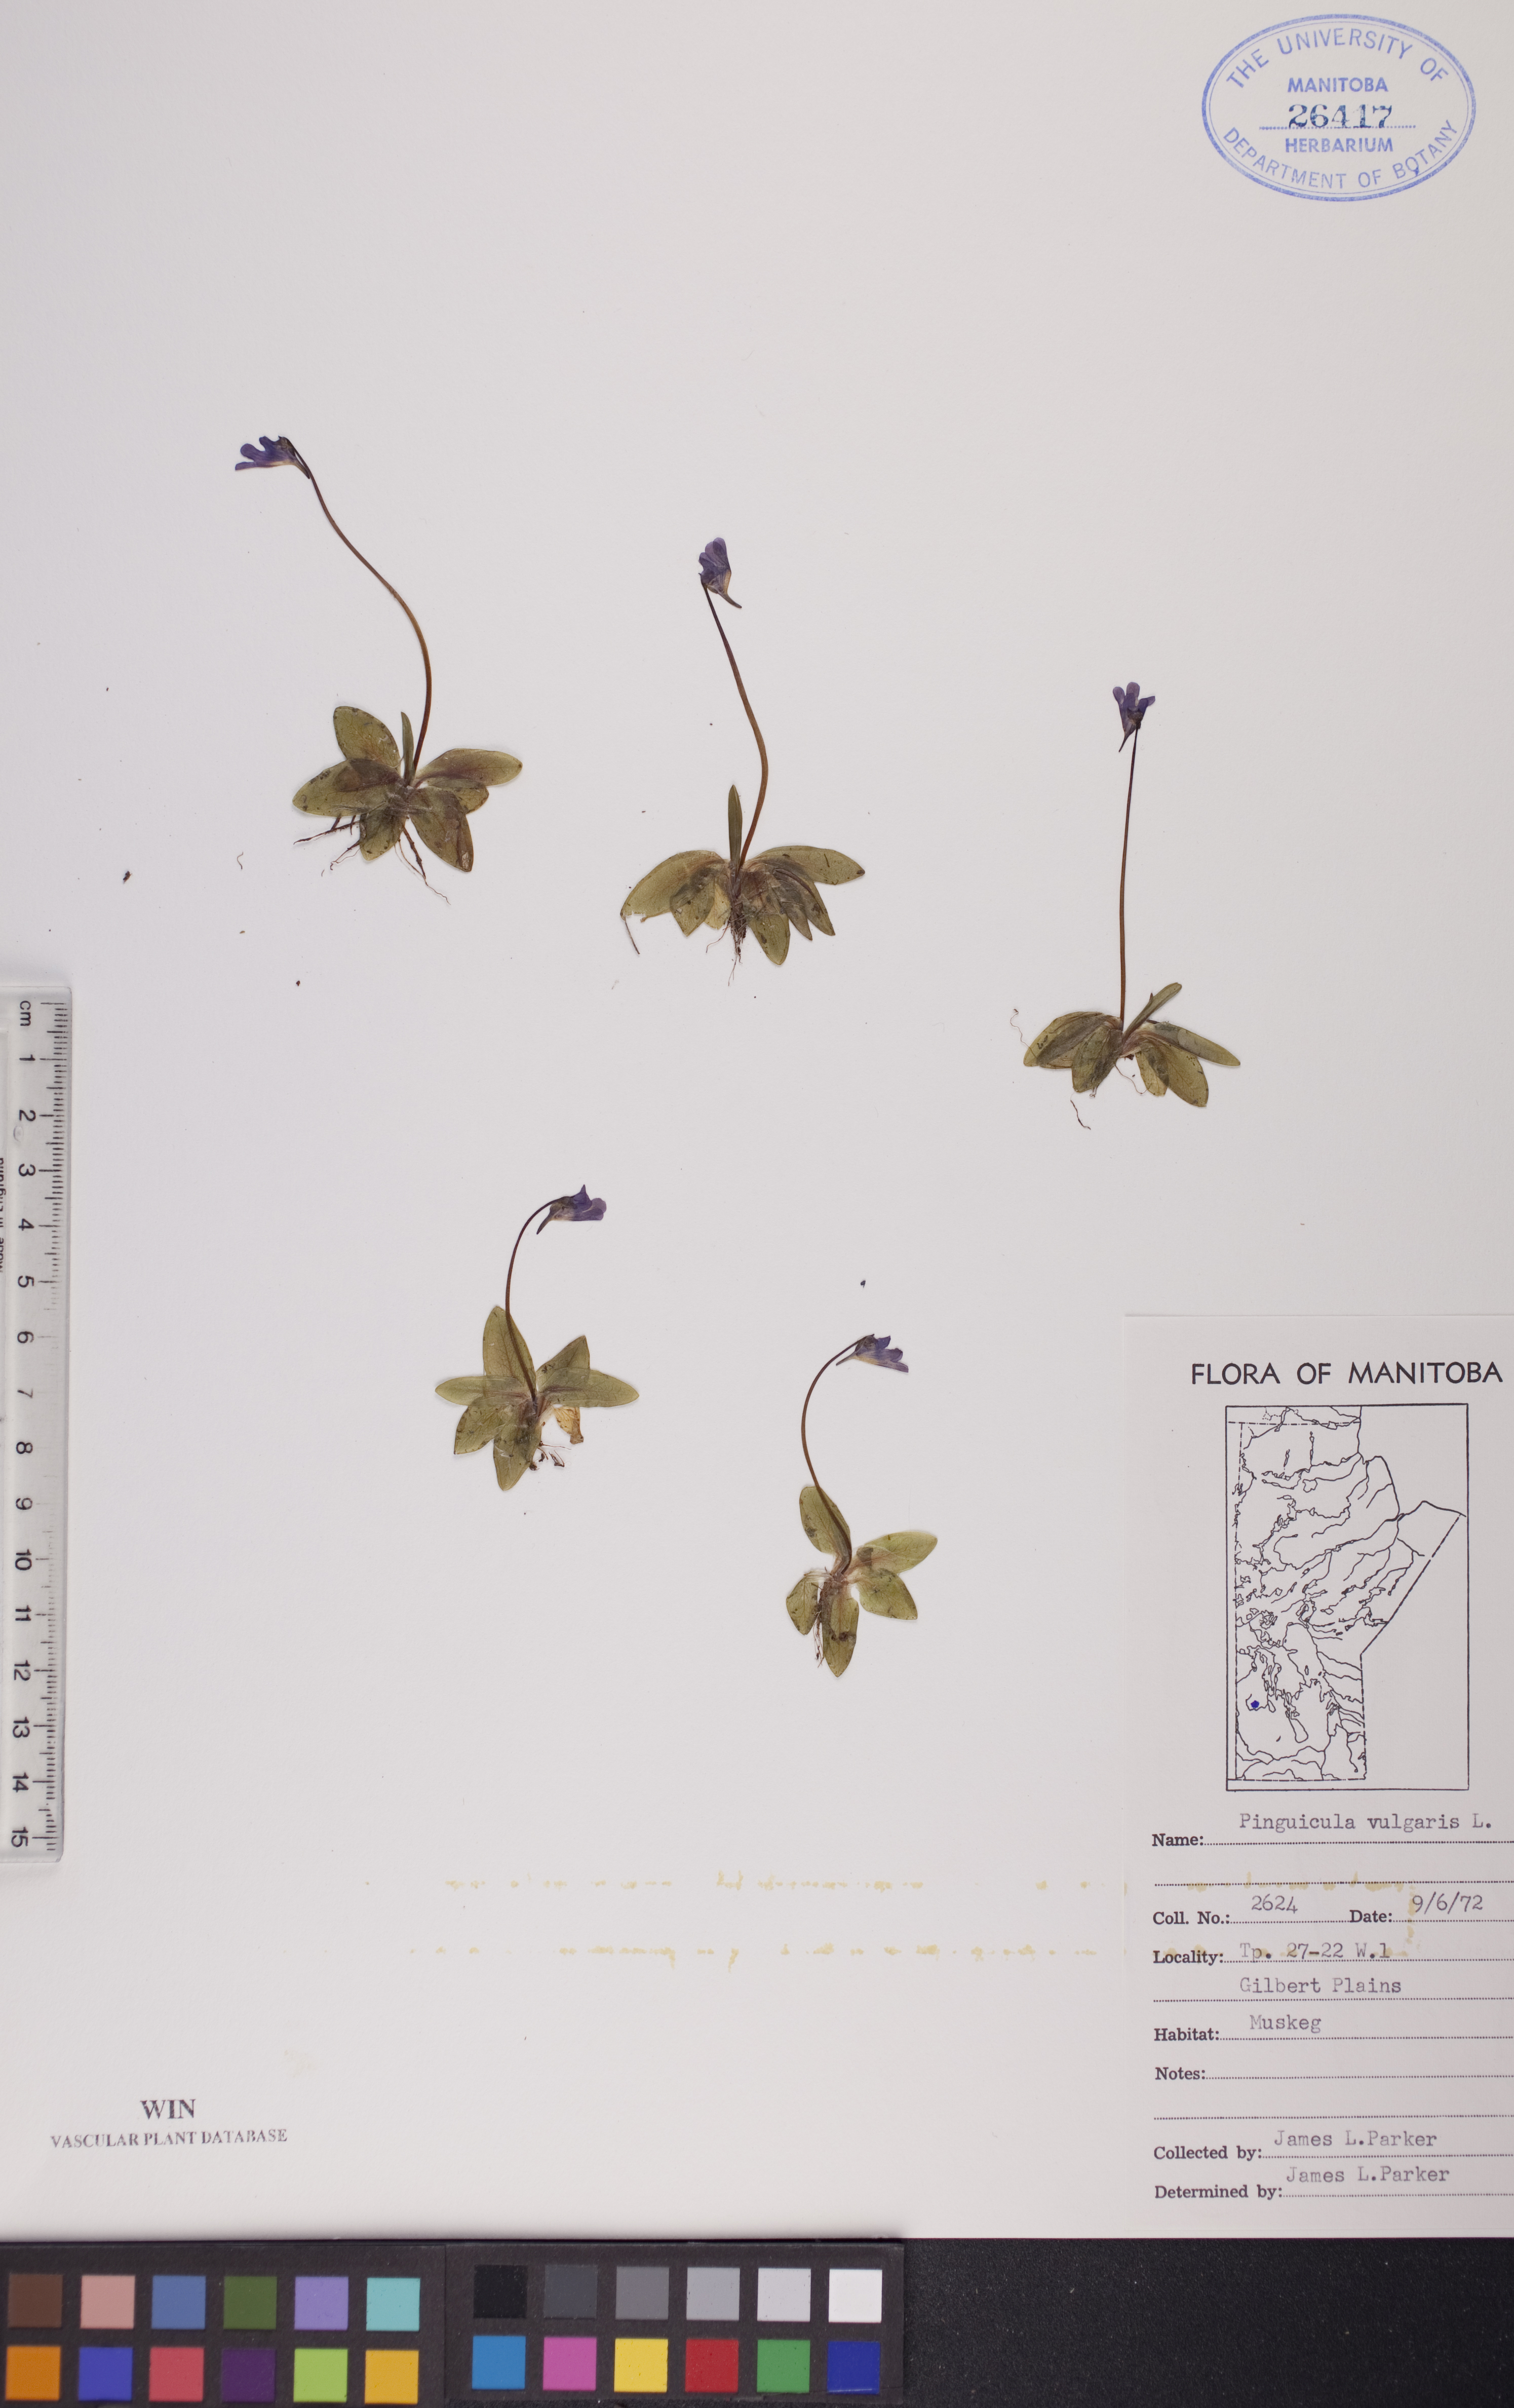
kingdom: Plantae
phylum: Tracheophyta
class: Magnoliopsida
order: Lamiales
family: Lentibulariaceae
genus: Pinguicula
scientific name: Pinguicula vulgaris
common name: Common butterwort
